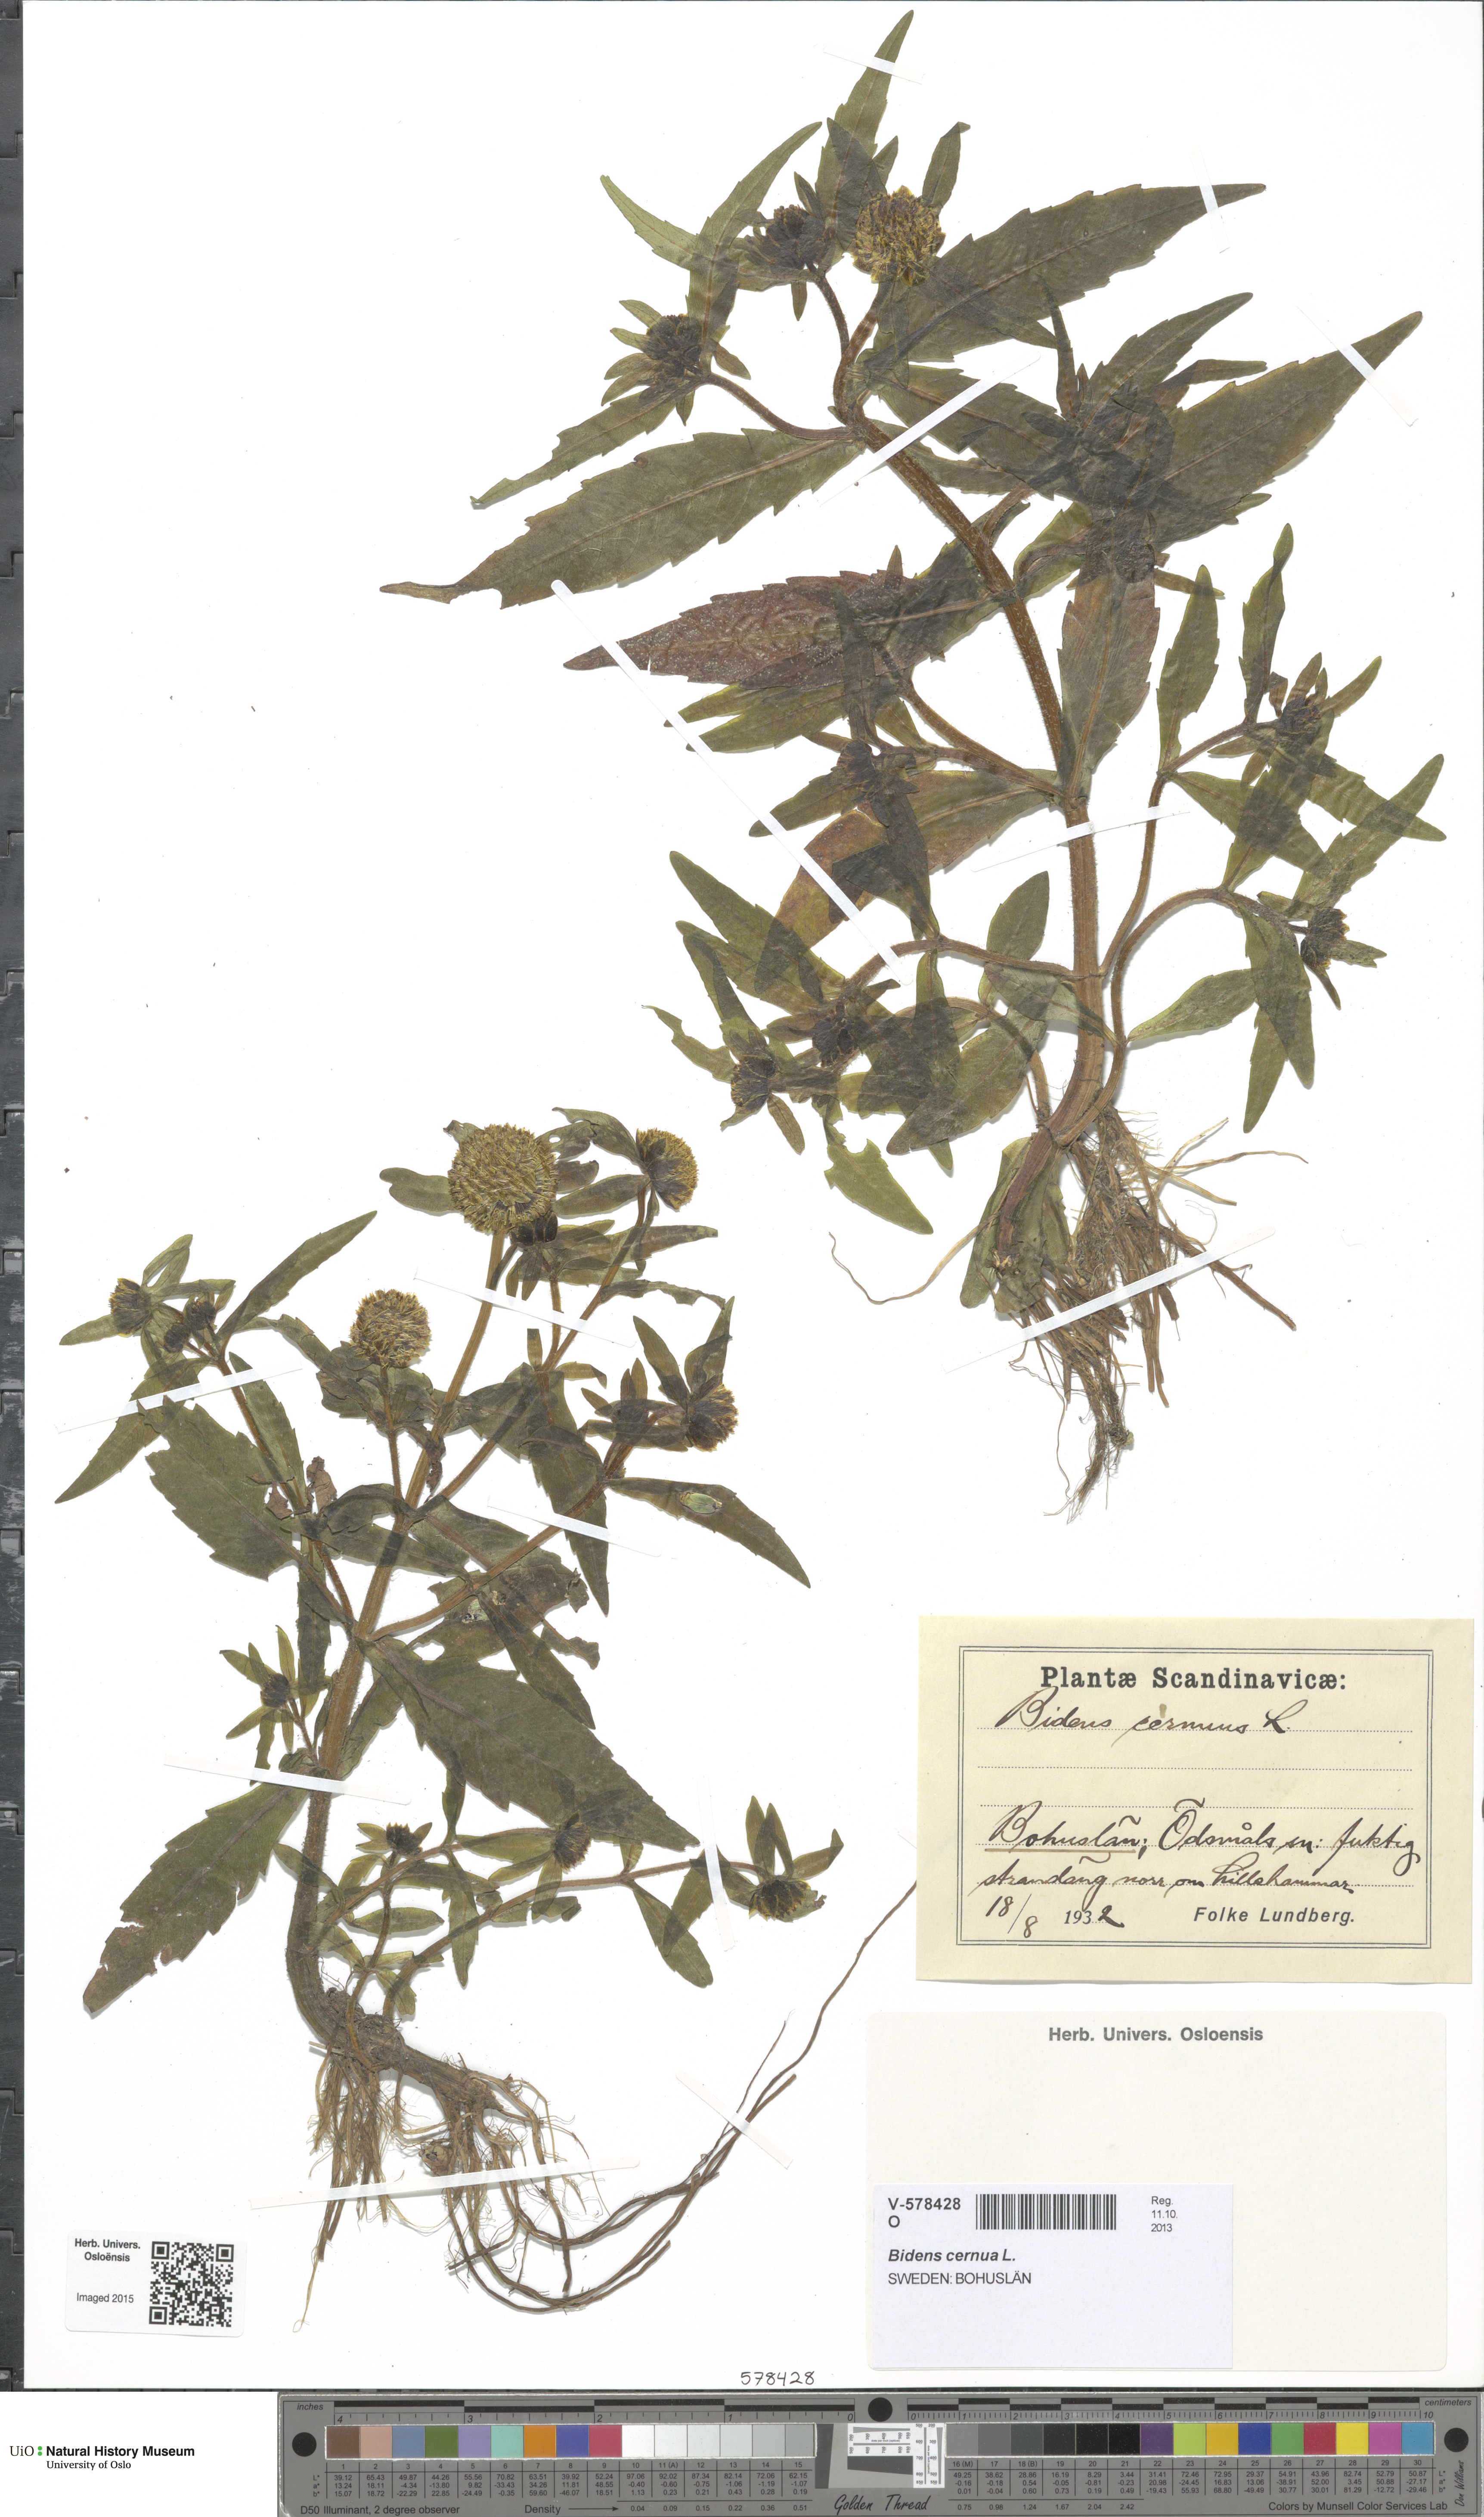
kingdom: Plantae
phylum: Tracheophyta
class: Magnoliopsida
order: Asterales
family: Asteraceae
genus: Bidens
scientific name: Bidens cernua
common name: Nodding bur-marigold
